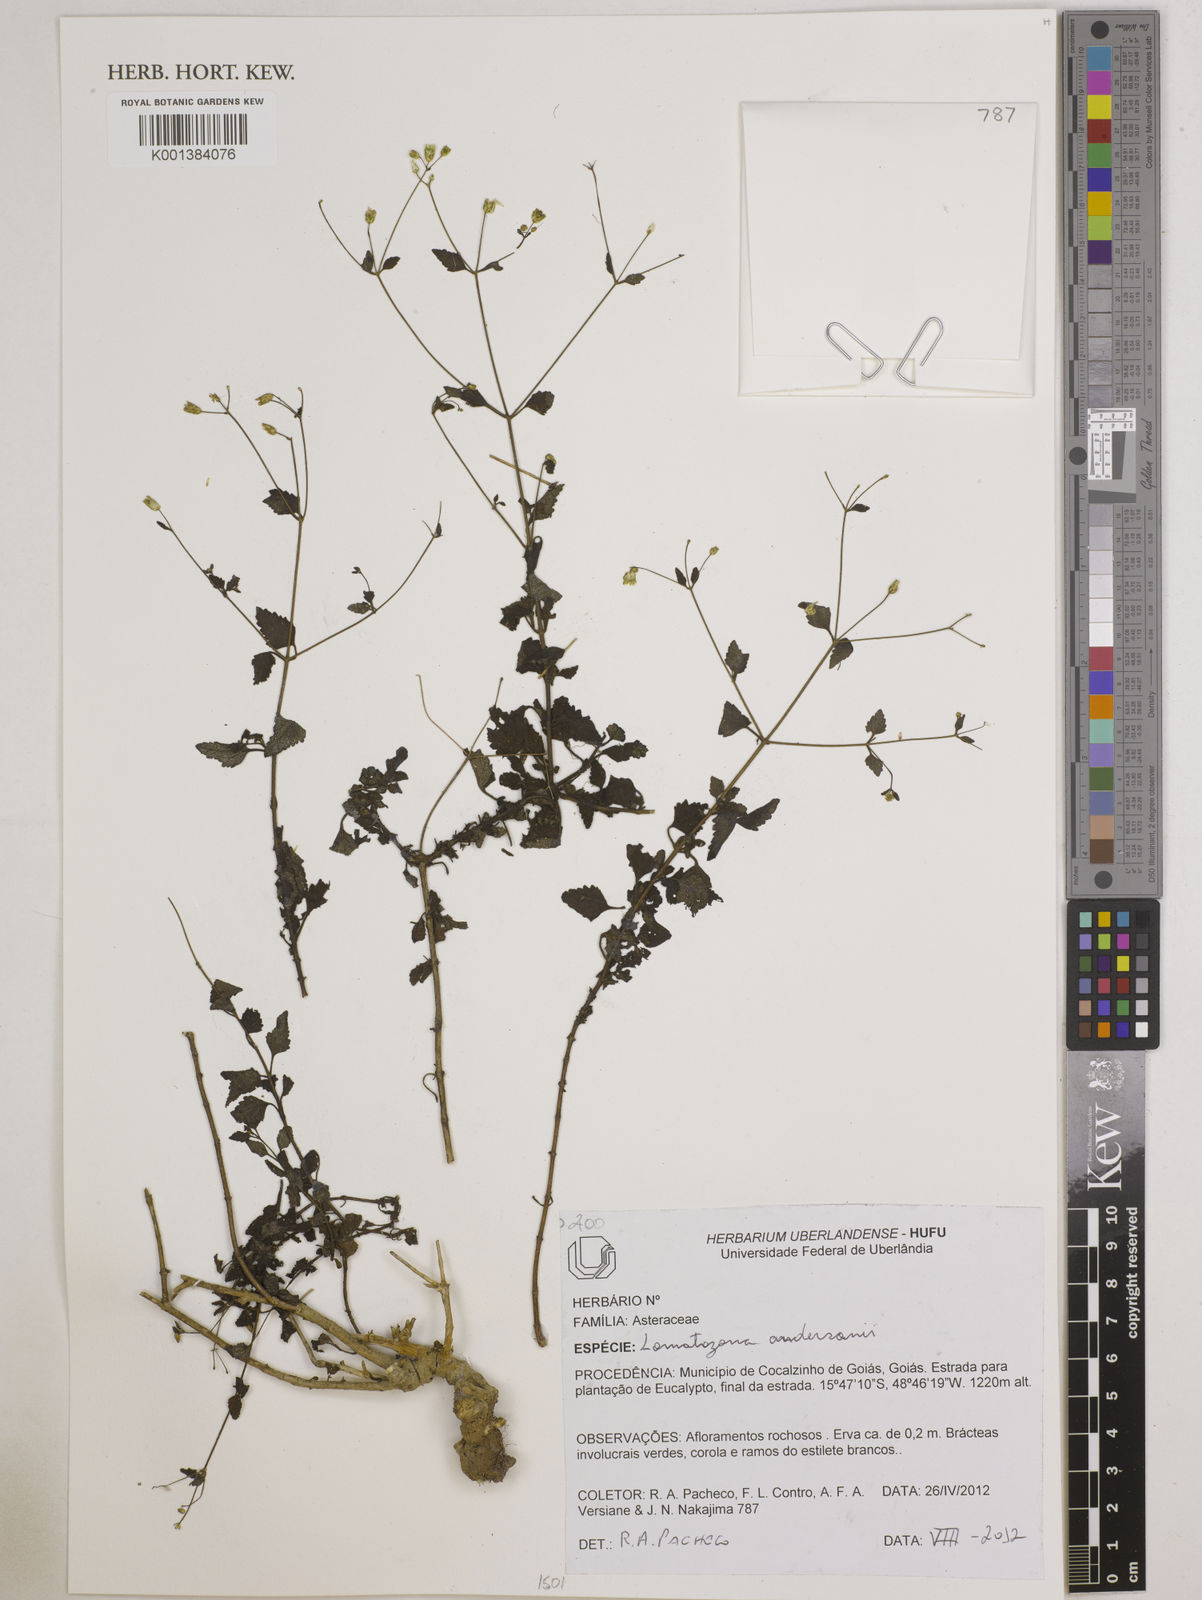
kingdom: Plantae
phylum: Tracheophyta
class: Magnoliopsida
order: Asterales
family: Asteraceae
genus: Lomatozona
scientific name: Lomatozona andersonii
